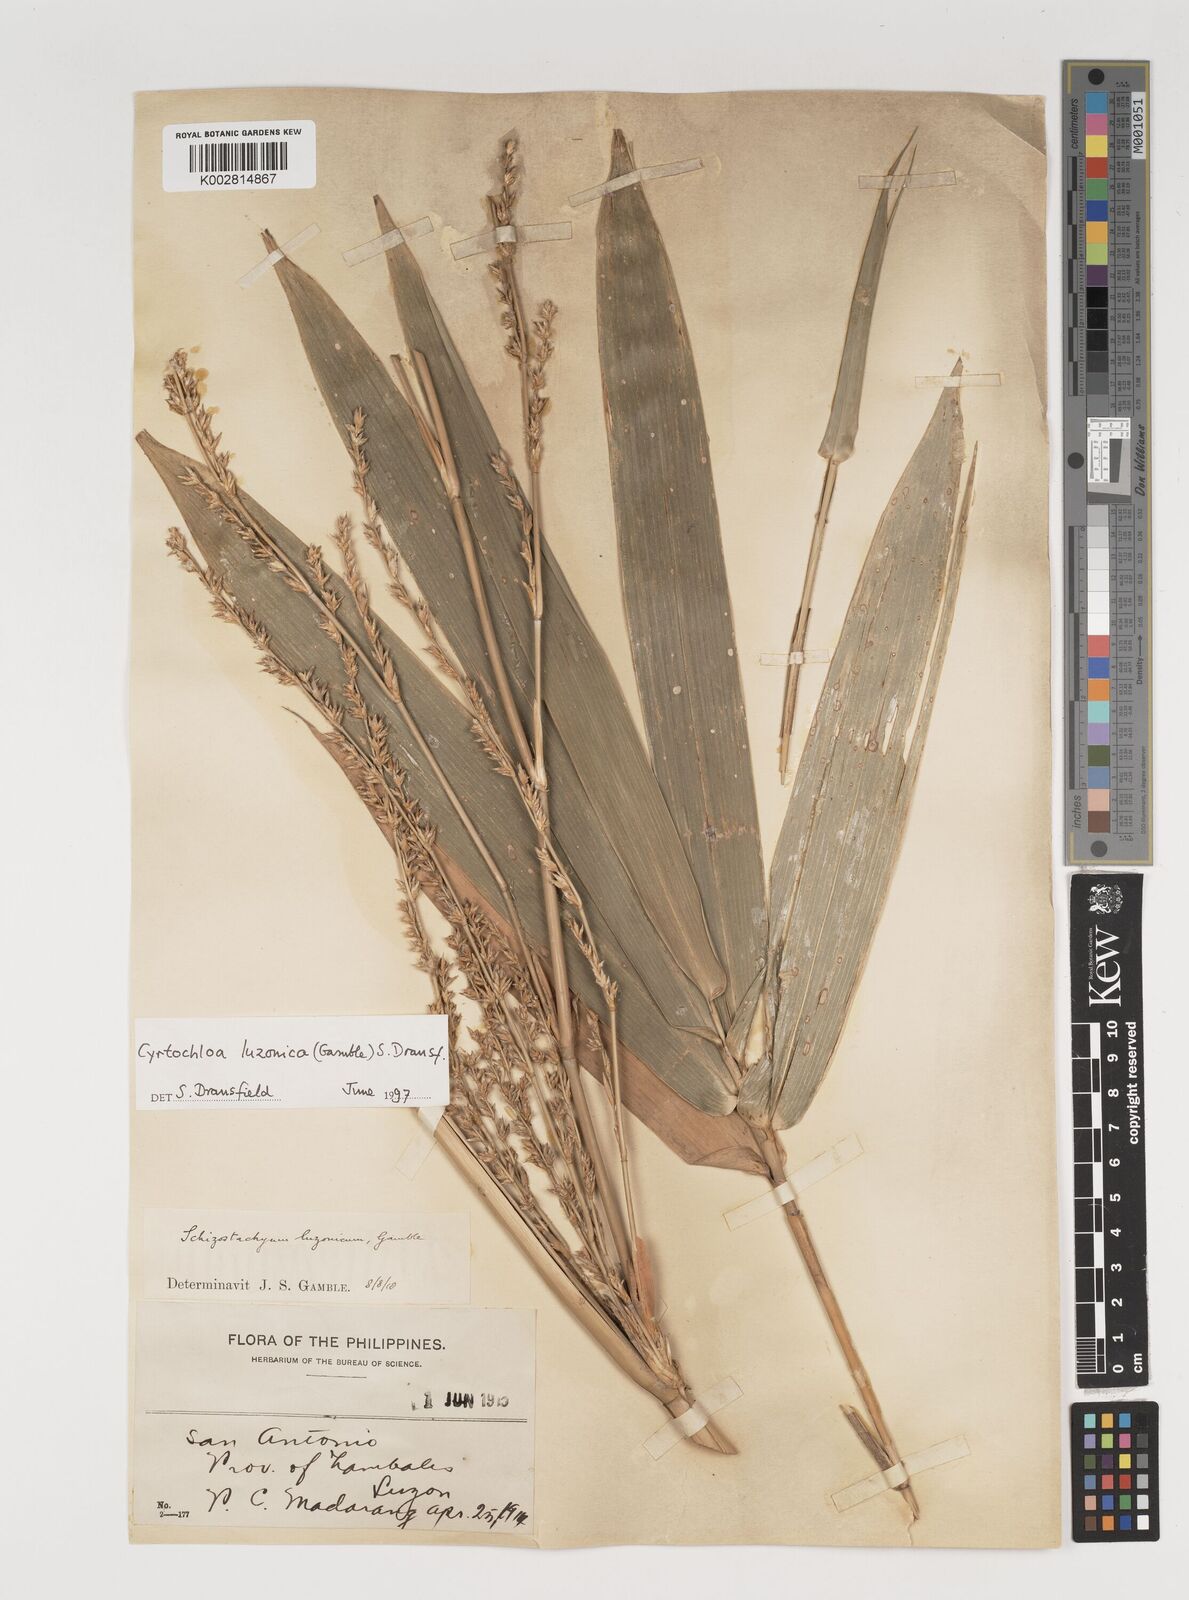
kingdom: Plantae
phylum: Tracheophyta
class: Liliopsida
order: Poales
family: Poaceae
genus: Cyrtochloa
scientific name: Cyrtochloa
